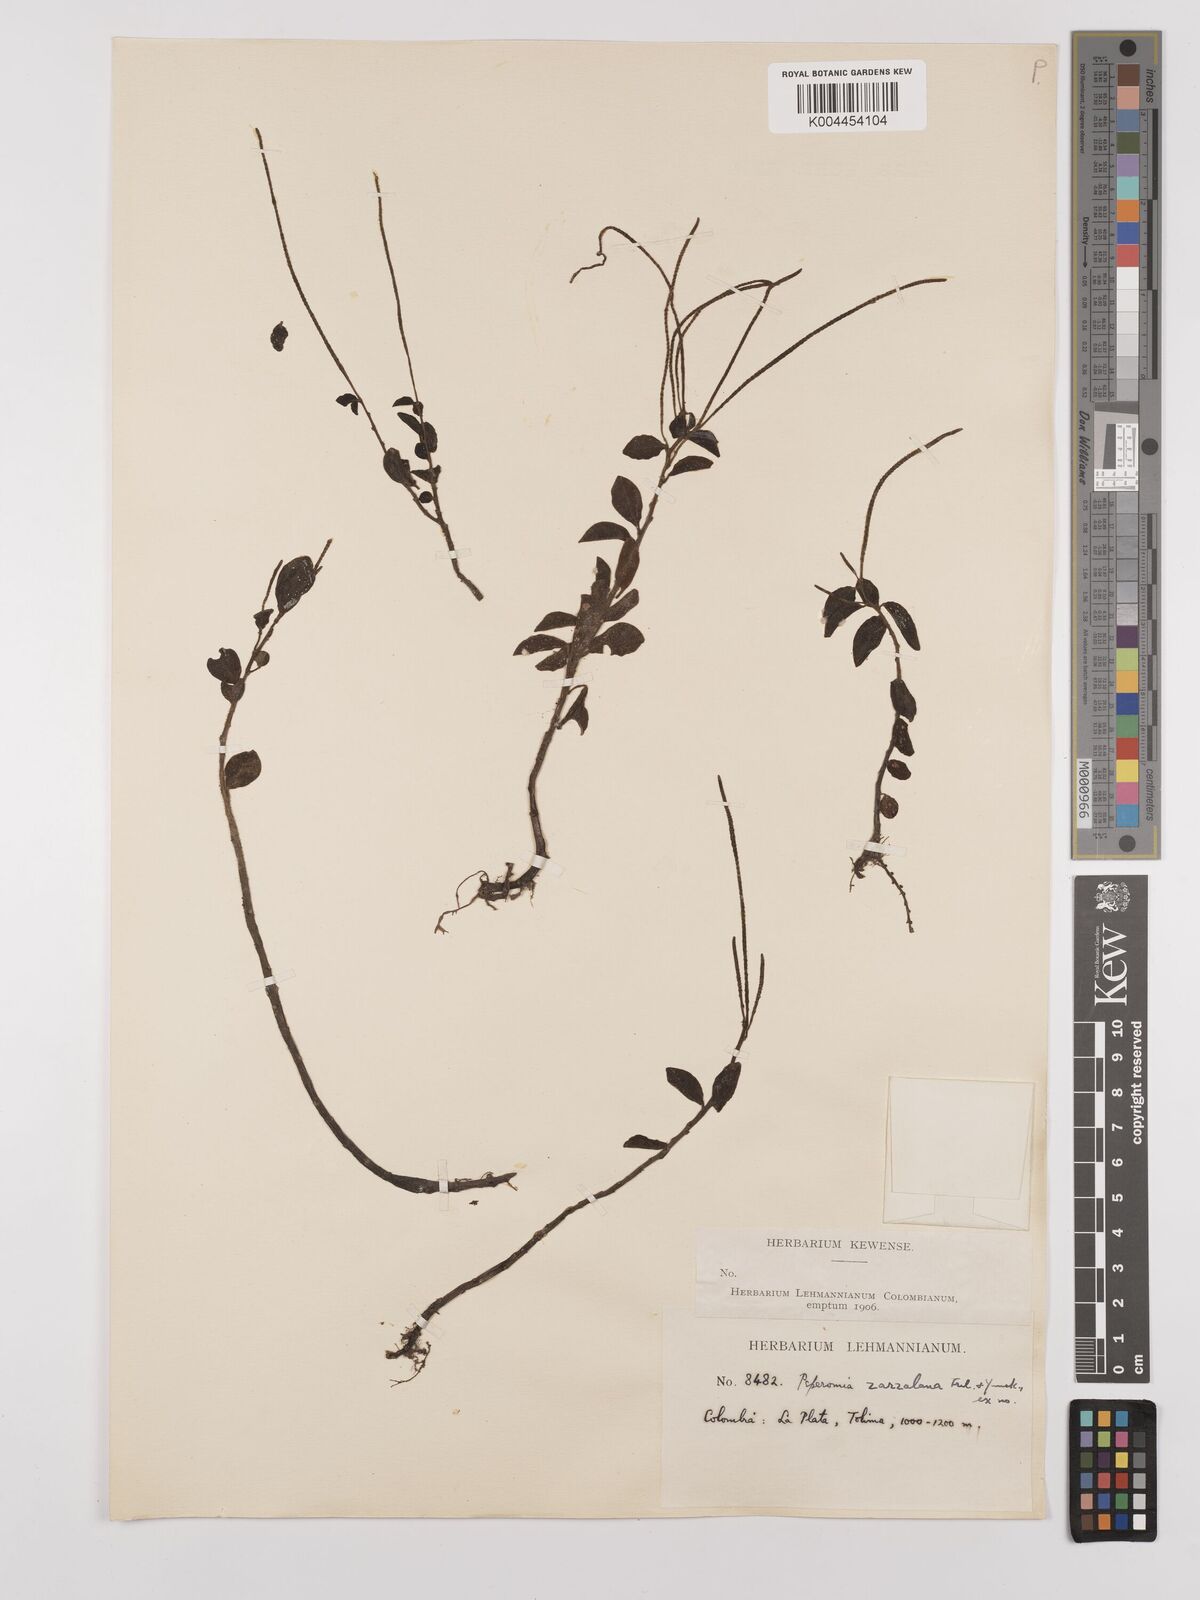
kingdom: Plantae
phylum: Tracheophyta
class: Magnoliopsida
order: Piperales
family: Piperaceae
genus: Peperomia
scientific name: Peperomia zarzalana
